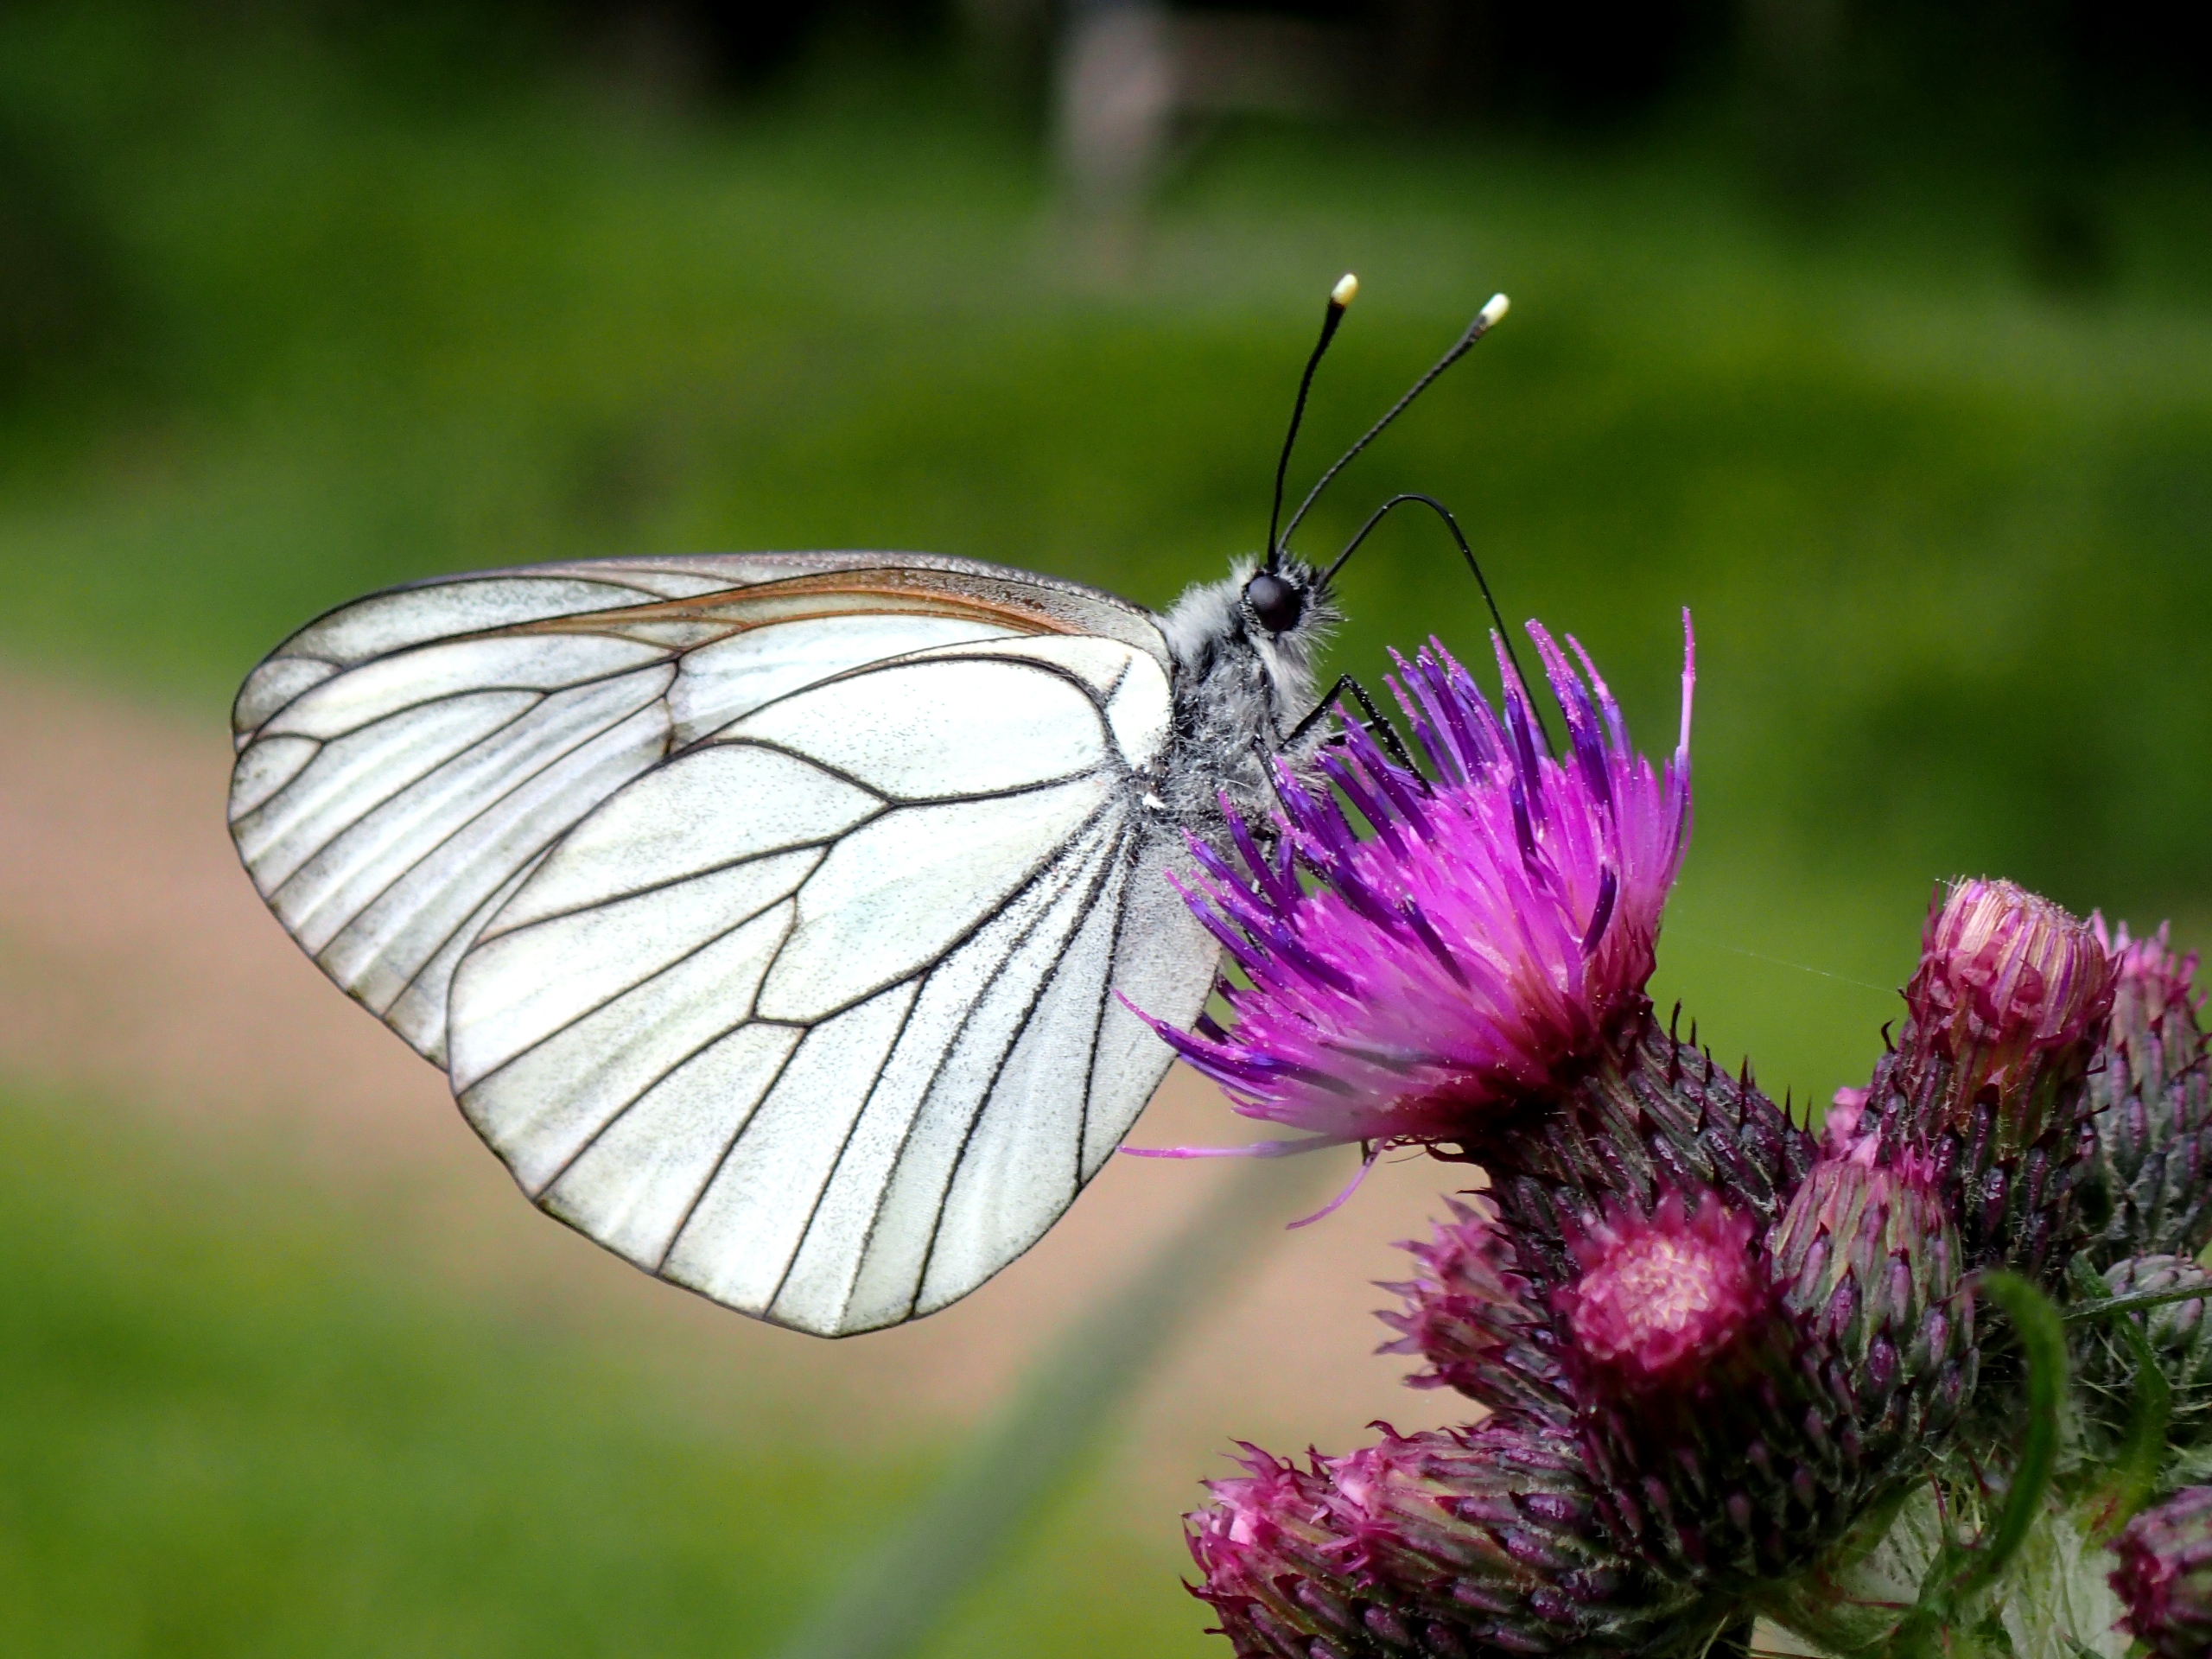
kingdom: Animalia
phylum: Arthropoda
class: Insecta
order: Lepidoptera
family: Pieridae
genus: Aporia
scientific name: Aporia crataegi
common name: Sortåret hvidvinge
